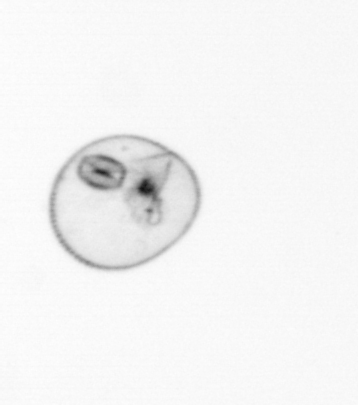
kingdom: Chromista
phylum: Myzozoa
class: Dinophyceae
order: Noctilucales
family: Noctilucaceae
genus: Noctiluca
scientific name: Noctiluca scintillans
